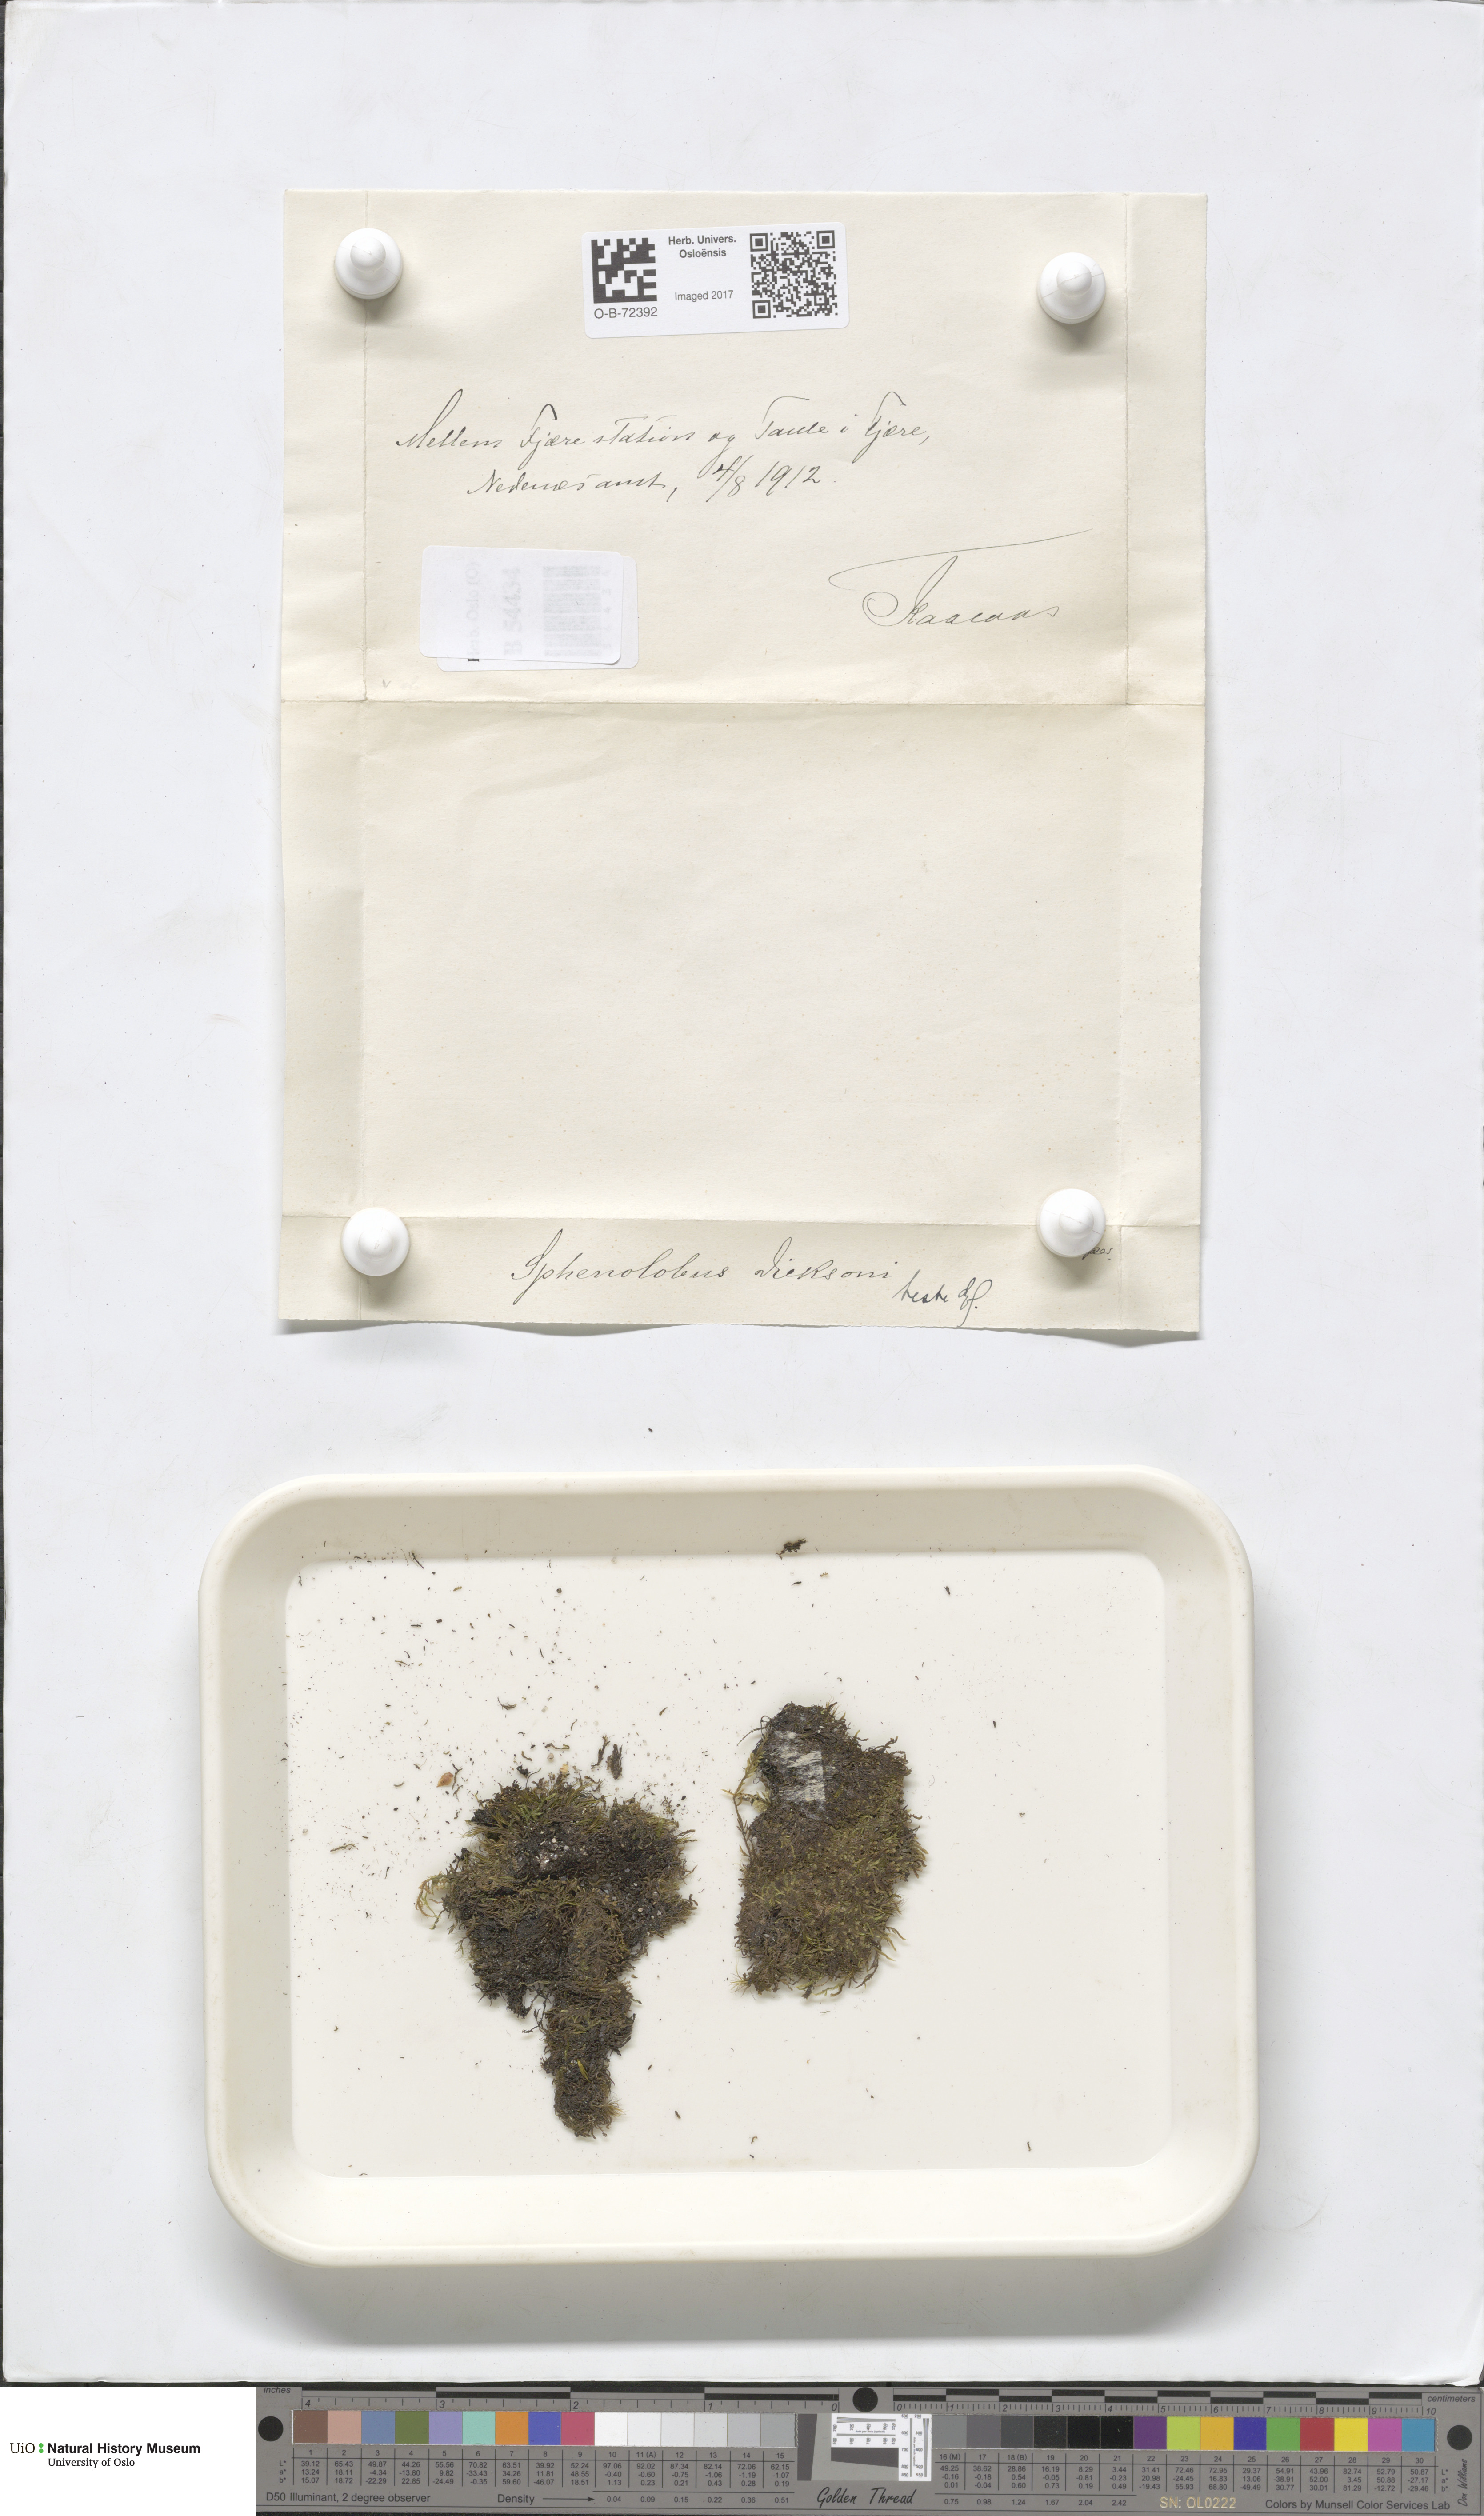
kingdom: Plantae
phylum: Marchantiophyta
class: Jungermanniopsida
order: Jungermanniales
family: Scapaniaceae
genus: Douinia
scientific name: Douinia ovata
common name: Waxy earwort
